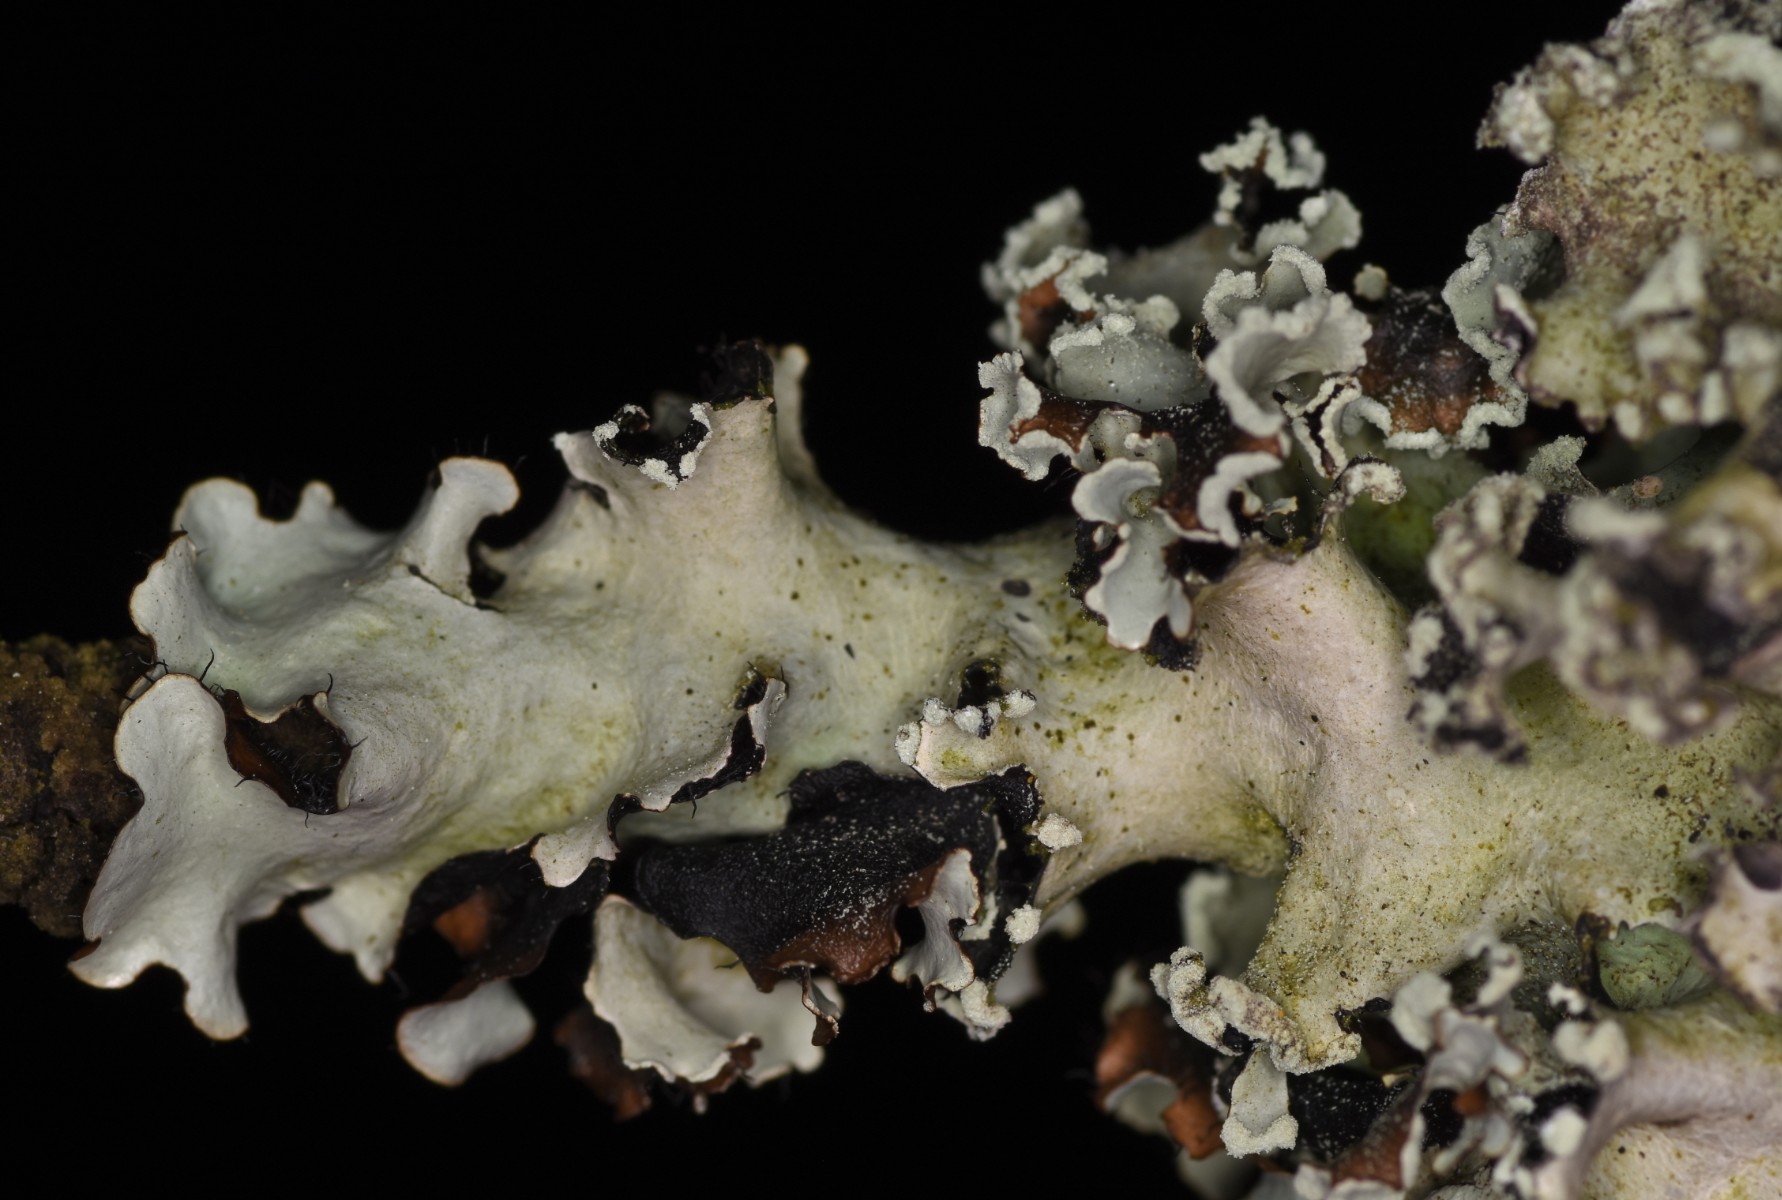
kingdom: Fungi
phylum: Ascomycota
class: Lecanoromycetes
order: Lecanorales
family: Parmeliaceae
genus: Parmotrema
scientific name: Parmotrema perlatum
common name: trådet skållav
